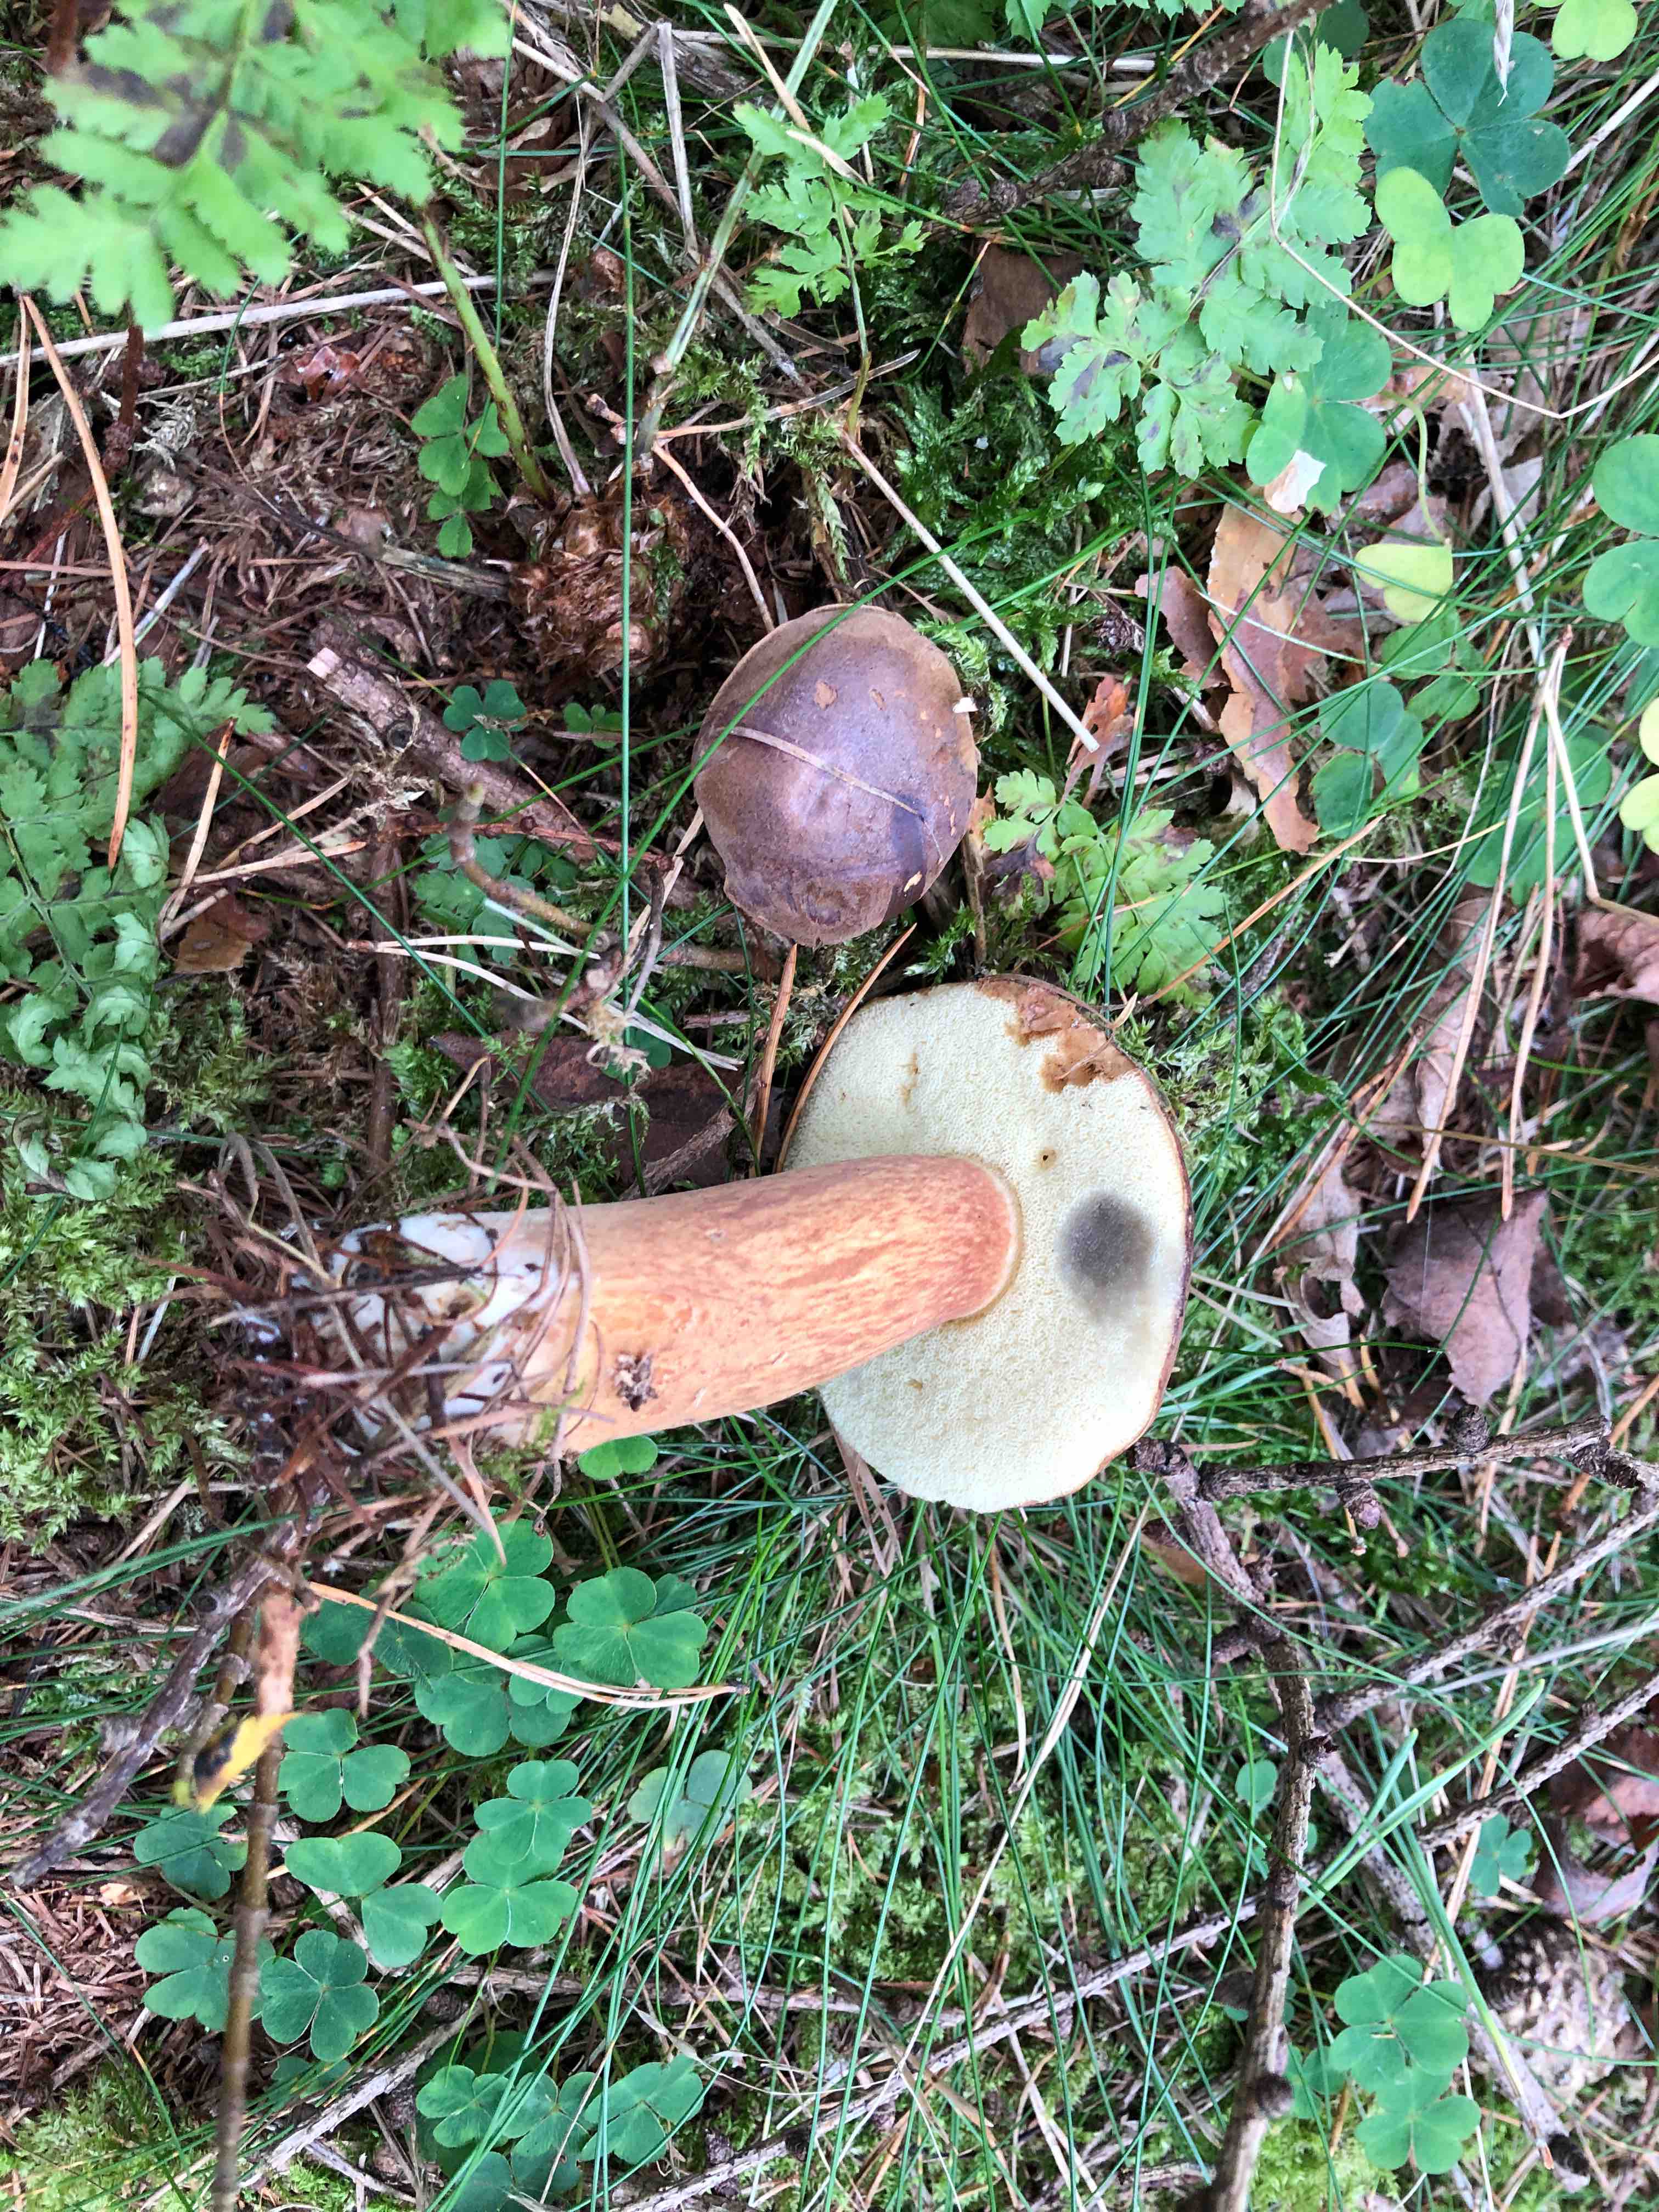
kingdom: Fungi
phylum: Basidiomycota
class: Agaricomycetes
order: Boletales
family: Boletaceae
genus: Imleria
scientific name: Imleria badia
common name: brunstokket rørhat
